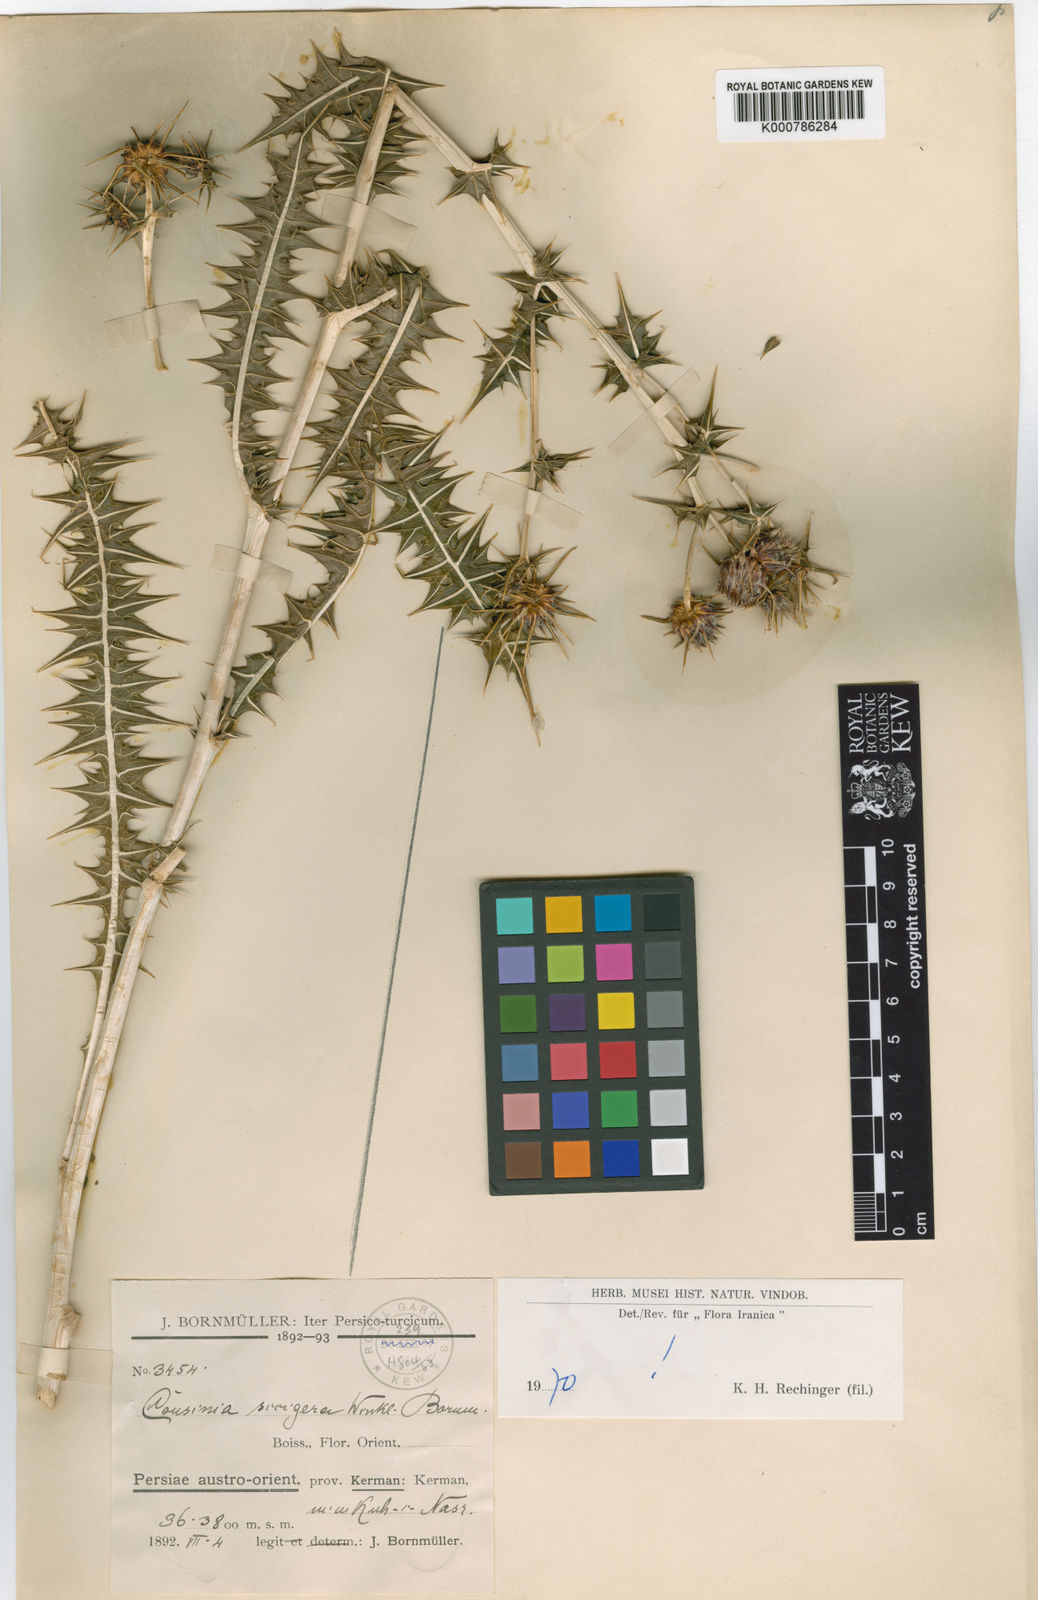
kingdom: Plantae
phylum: Tracheophyta
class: Magnoliopsida
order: Asterales
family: Asteraceae
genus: Cousinia
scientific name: Cousinia sicigera
